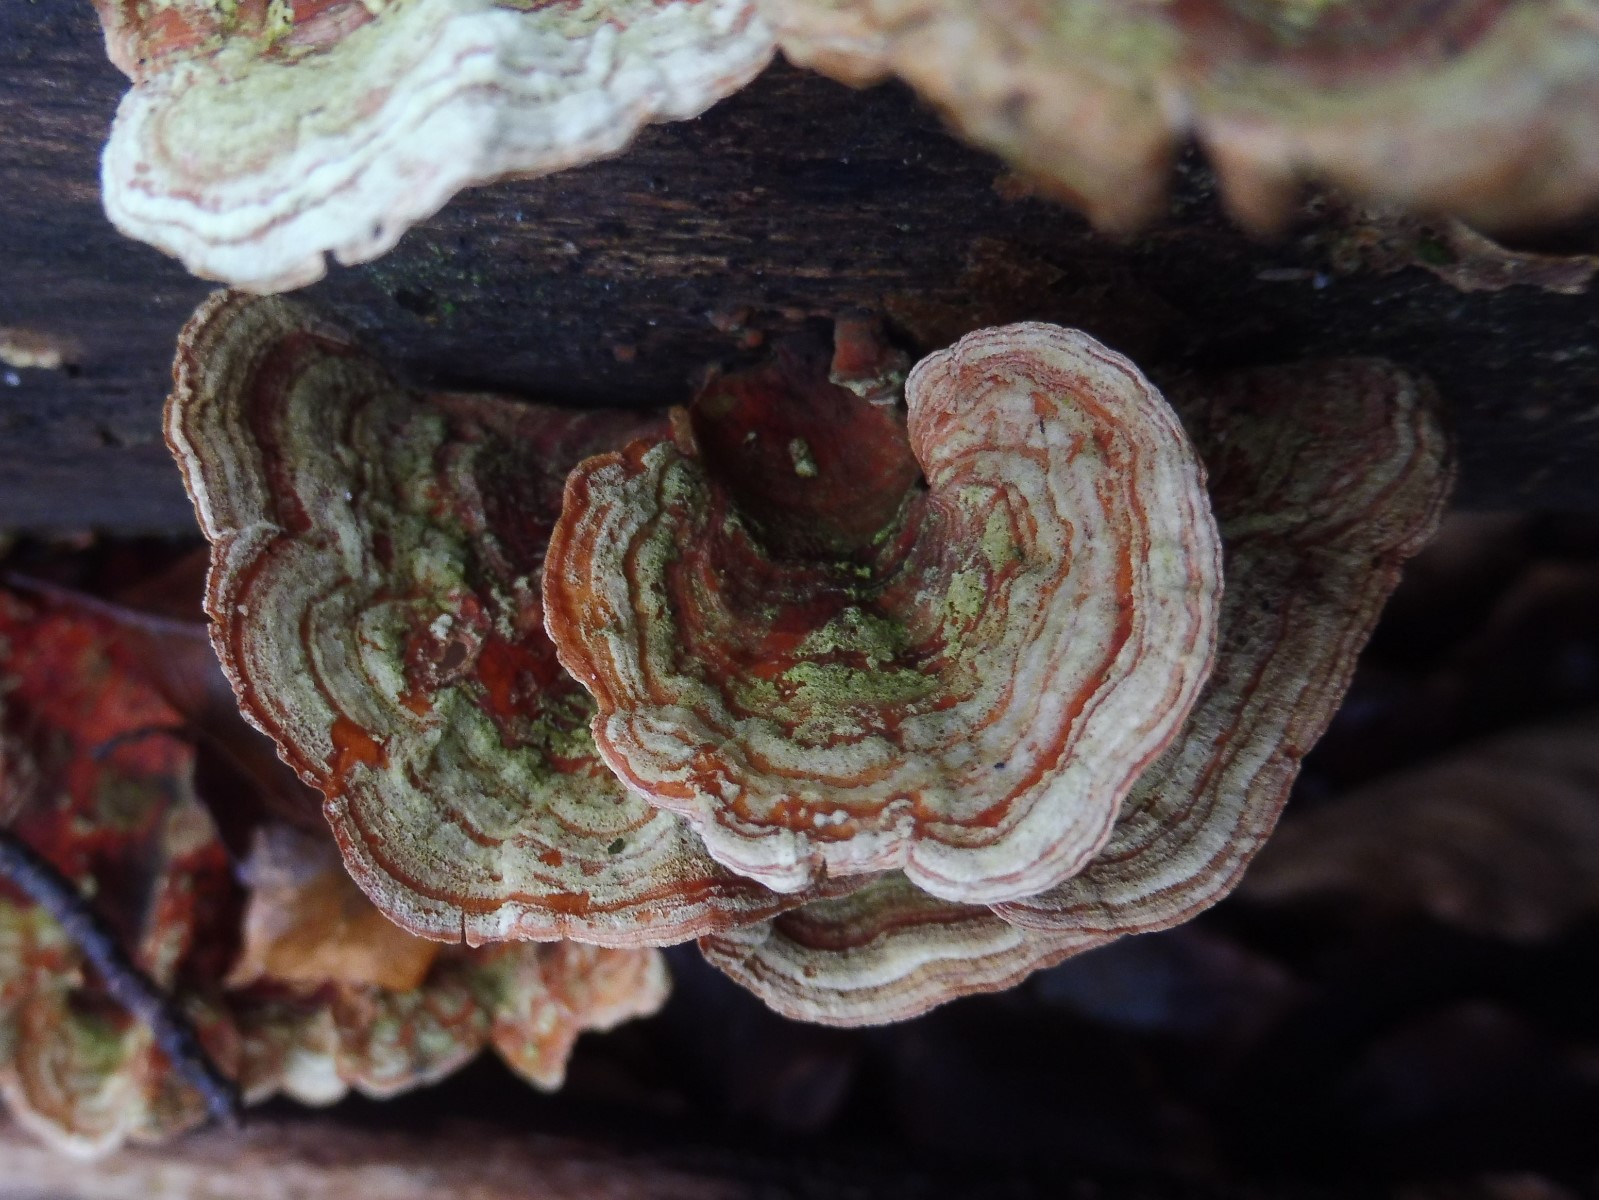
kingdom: Fungi
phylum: Basidiomycota
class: Agaricomycetes
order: Russulales
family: Stereaceae
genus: Stereum
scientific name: Stereum subtomentosum
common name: smuk lædersvamp
